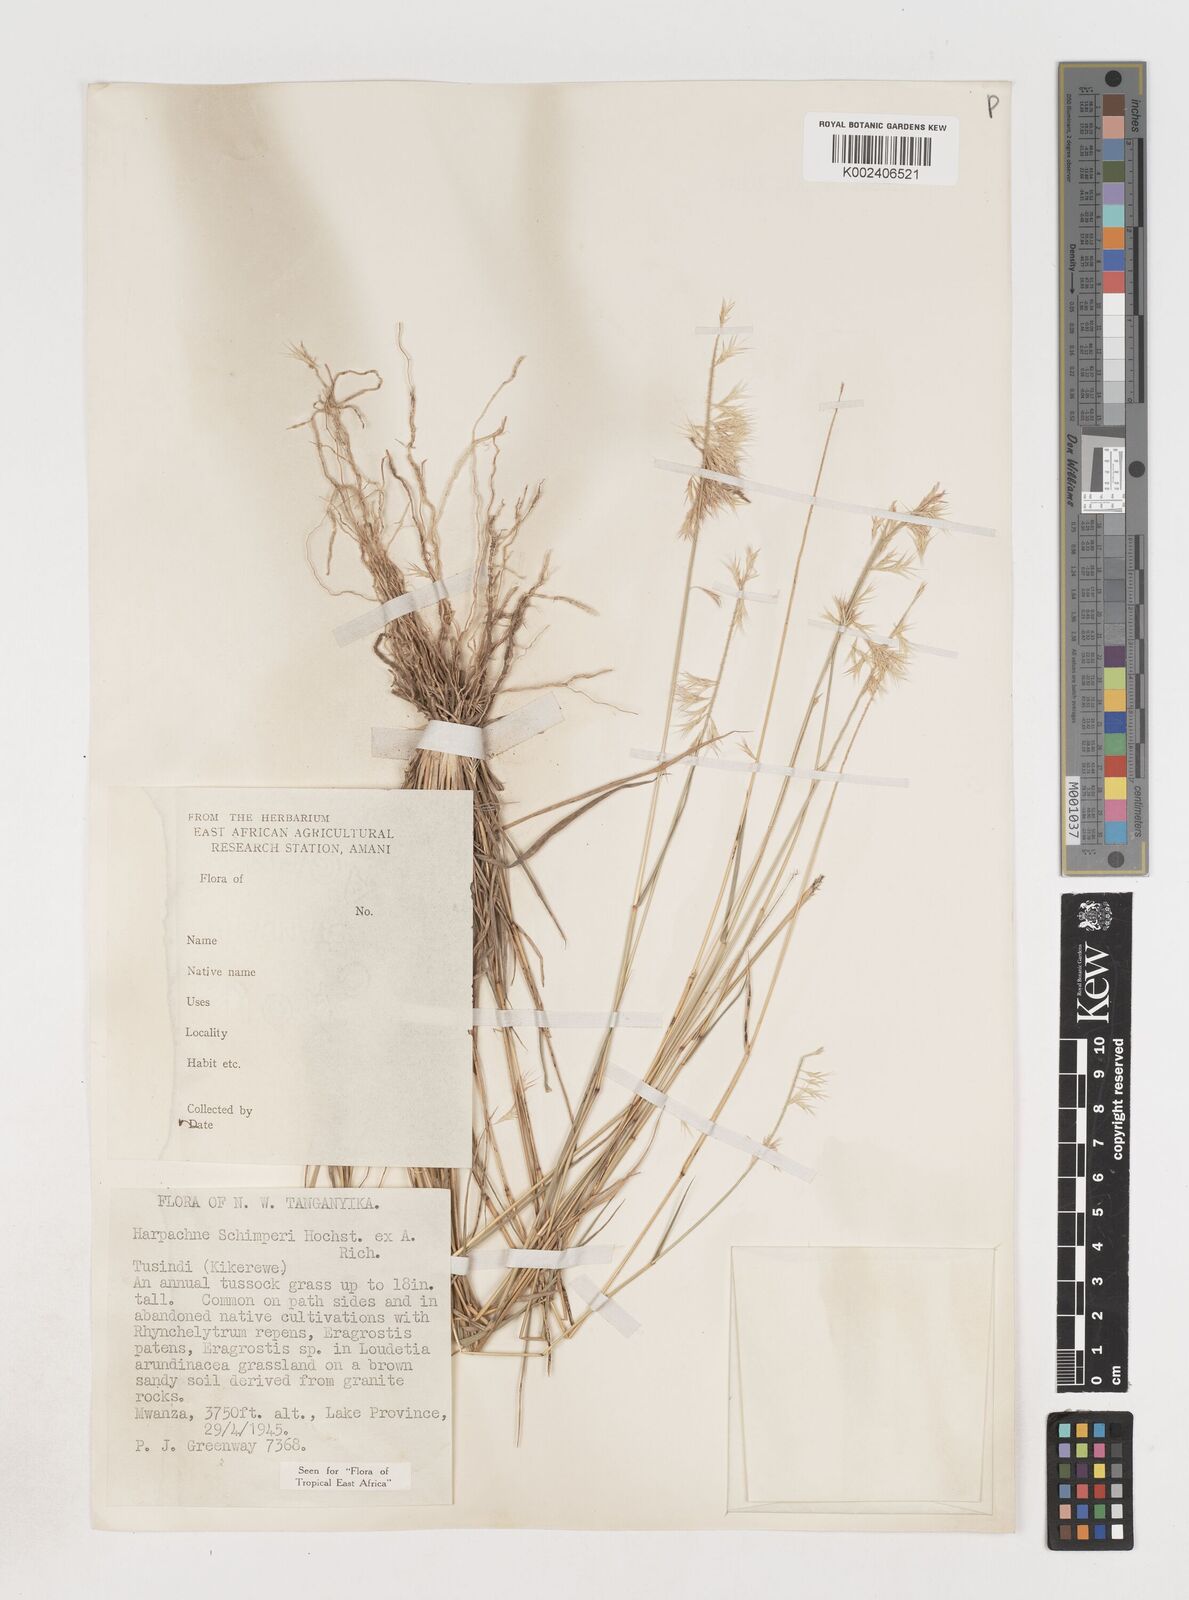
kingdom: Plantae
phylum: Tracheophyta
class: Liliopsida
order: Poales
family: Poaceae
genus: Harpachne
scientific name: Harpachne schimperi
